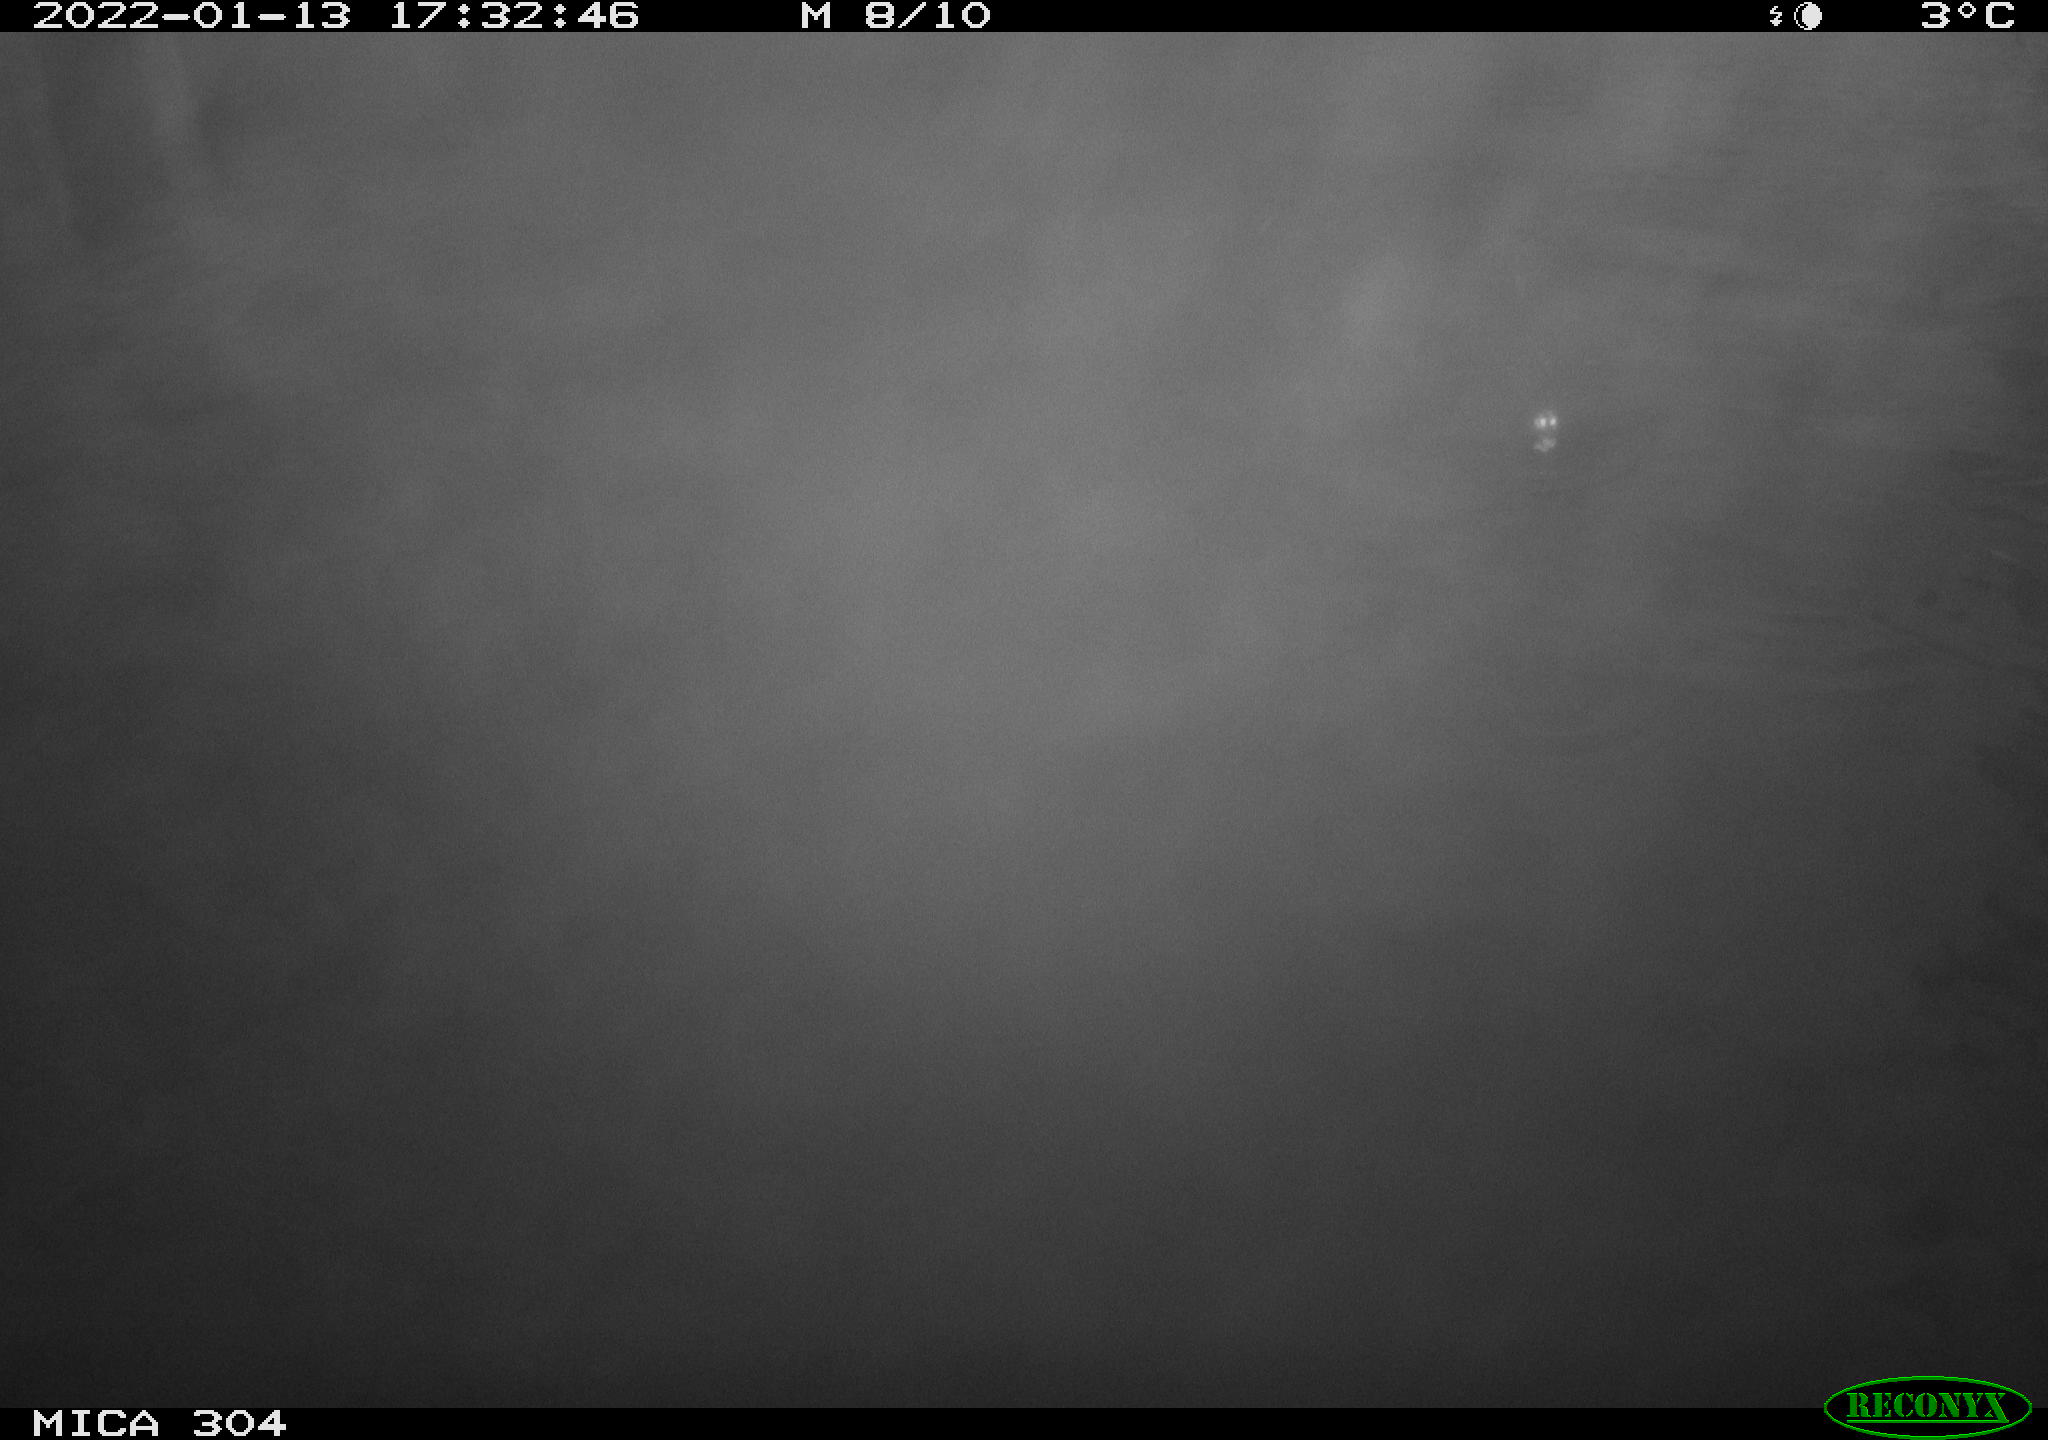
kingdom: Animalia
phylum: Chordata
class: Aves
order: Anseriformes
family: Anatidae
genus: Anas
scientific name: Anas platyrhynchos
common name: Mallard
